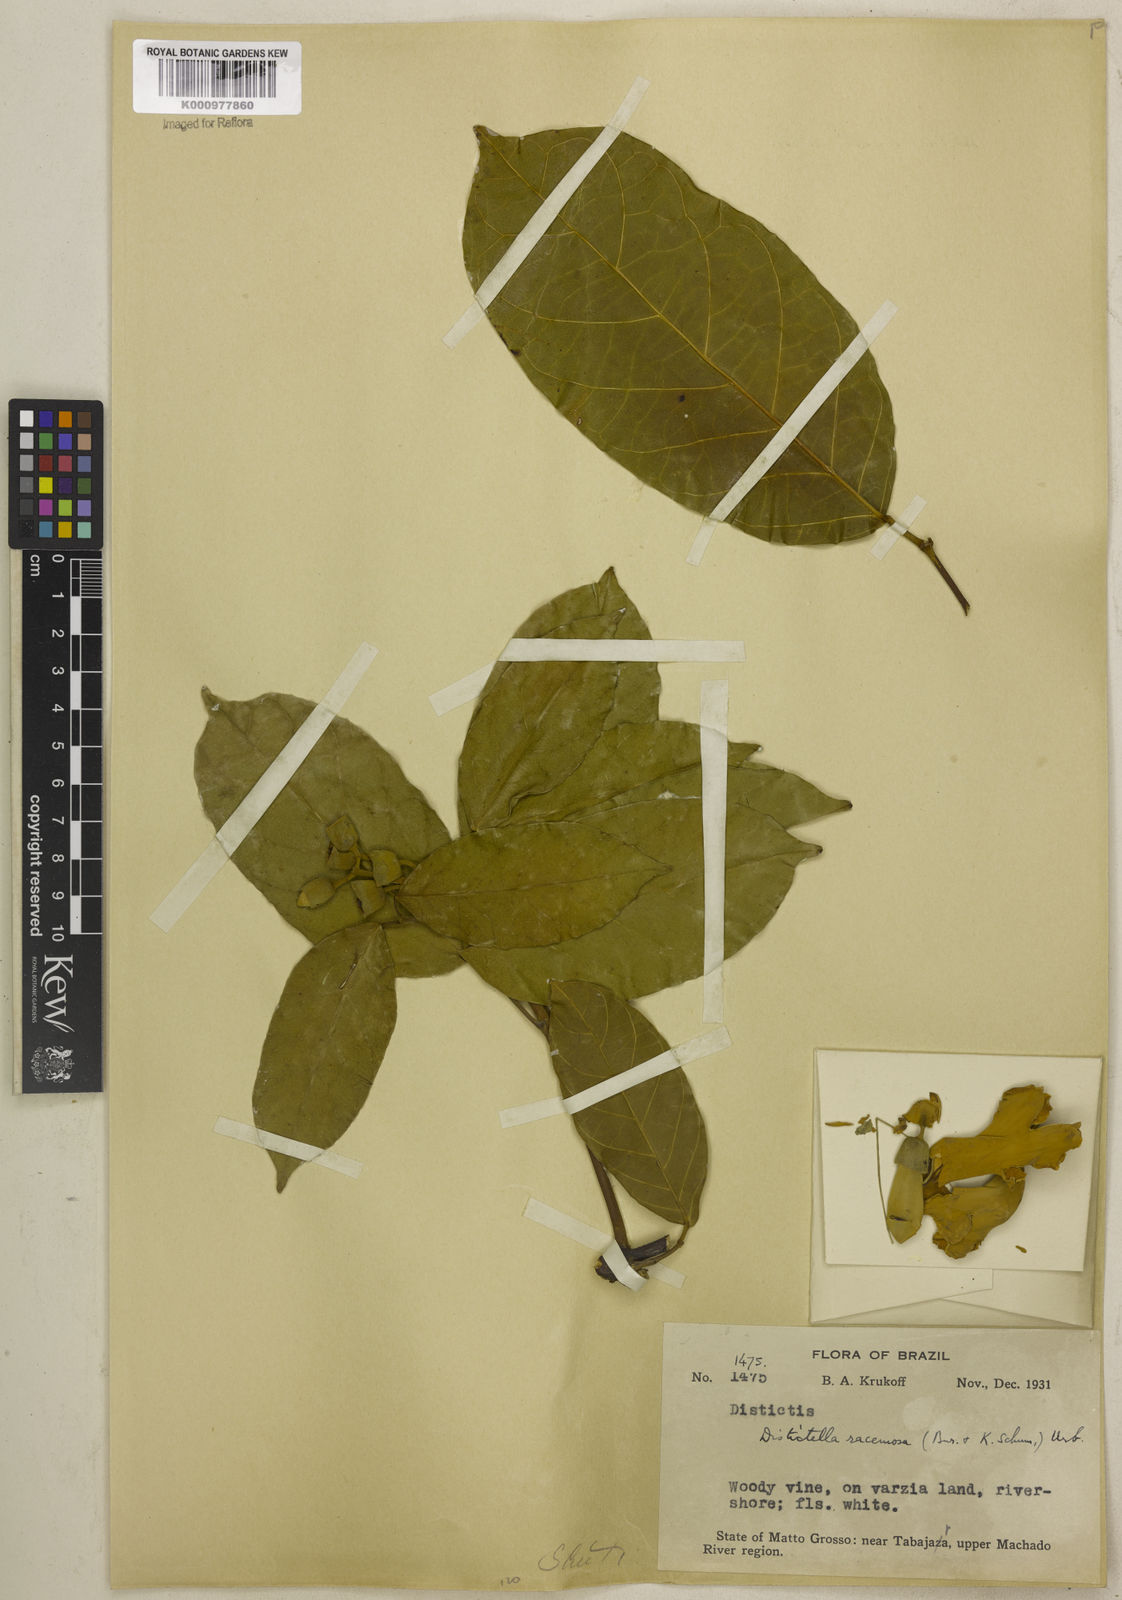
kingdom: Plantae
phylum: Tracheophyta
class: Magnoliopsida
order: Lamiales
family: Bignoniaceae
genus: Amphilophium
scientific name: Amphilophium racemosum
